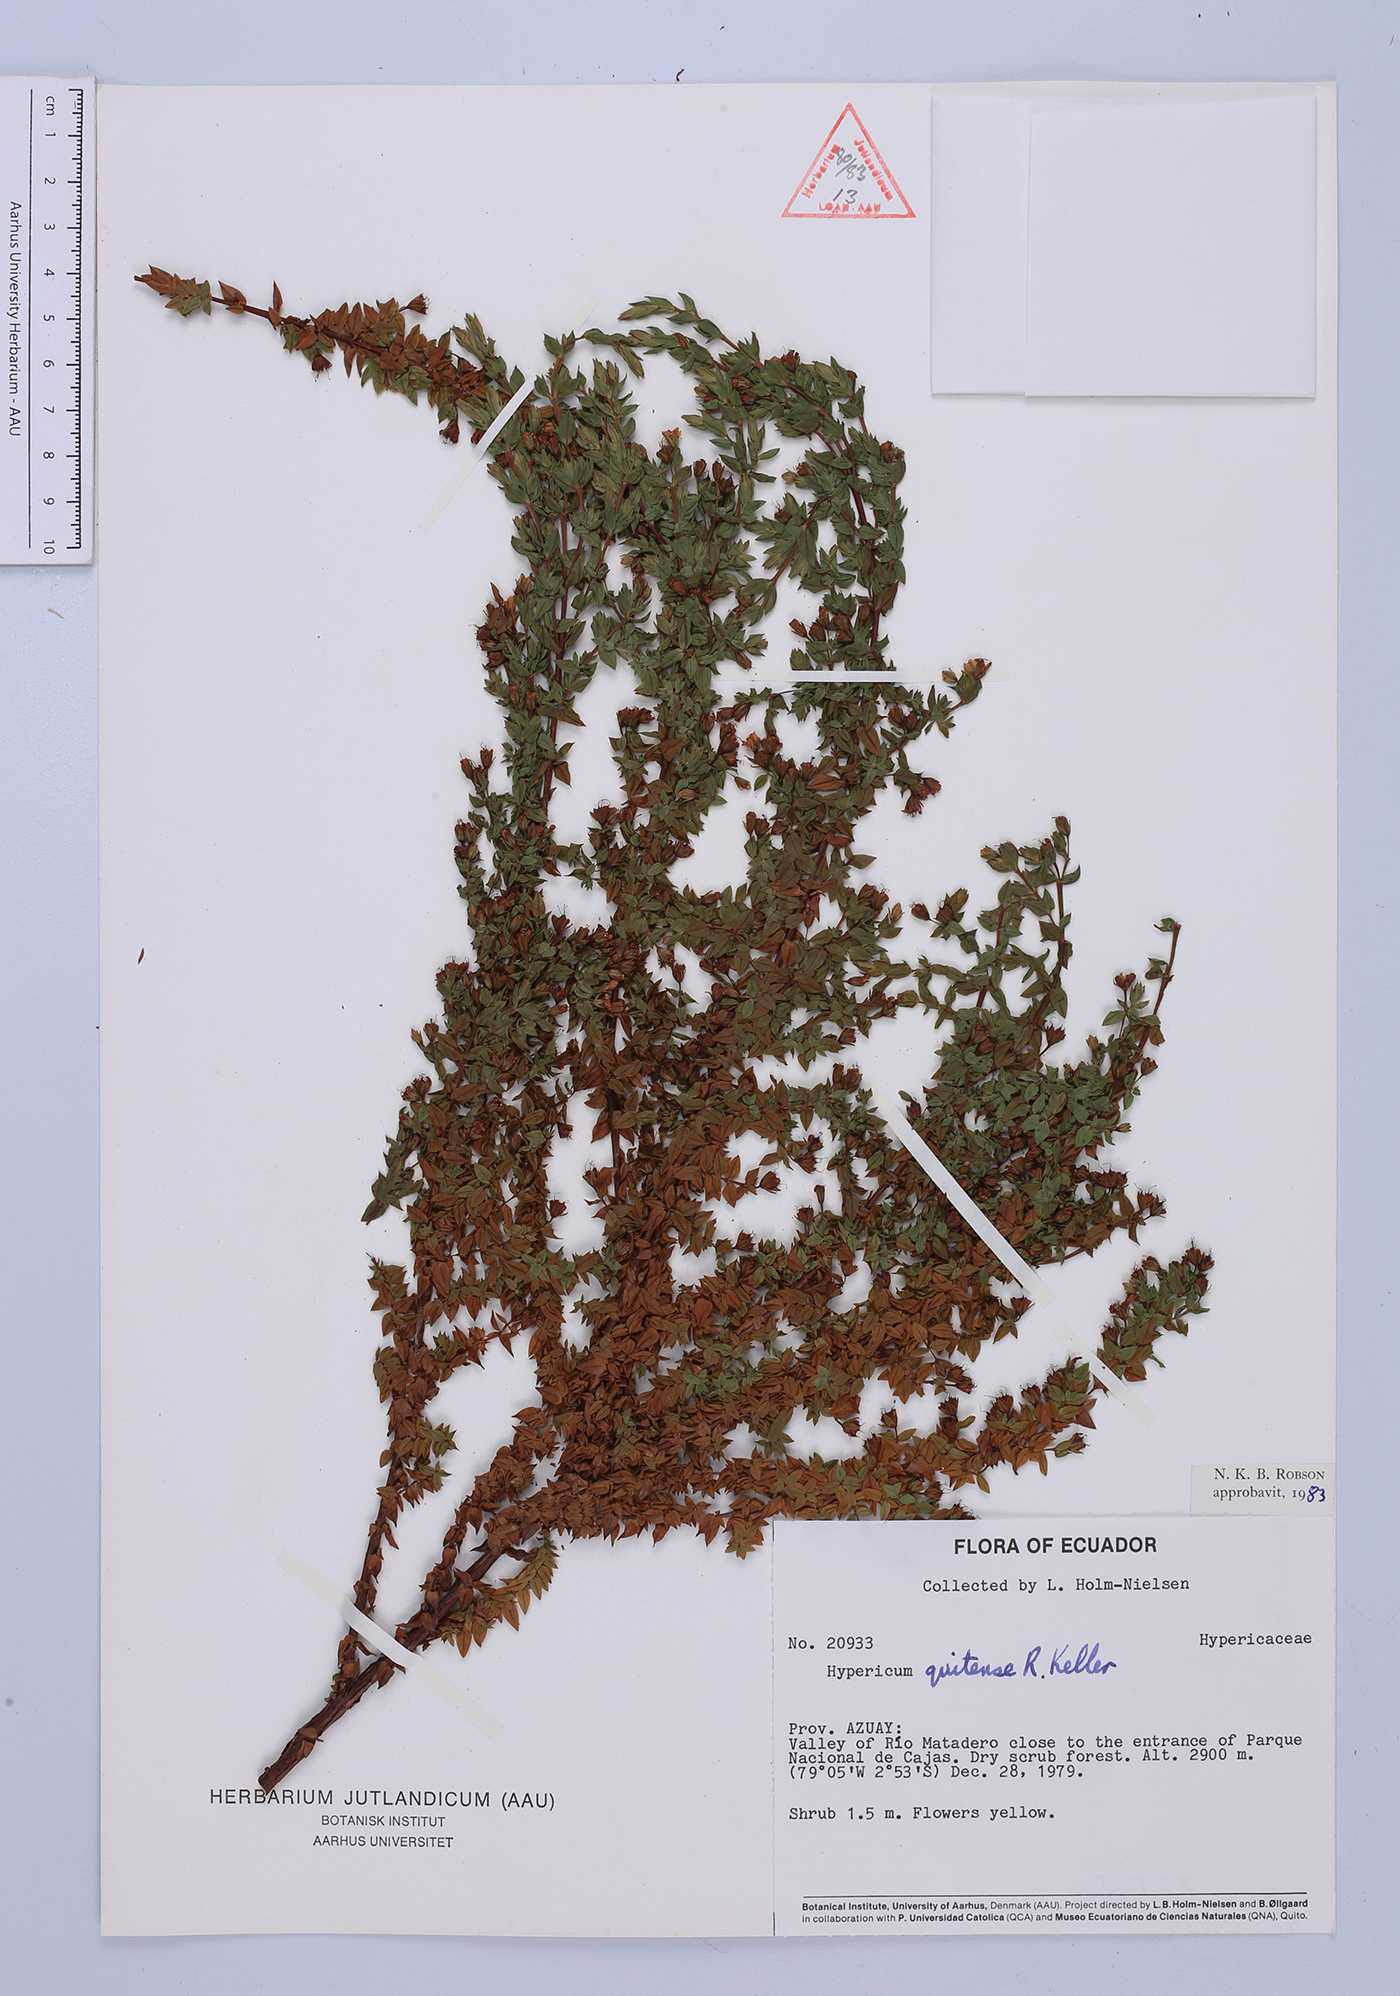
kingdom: Plantae
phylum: Tracheophyta
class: Magnoliopsida
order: Malpighiales
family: Hypericaceae
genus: Hypericum
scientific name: Hypericum quitense
